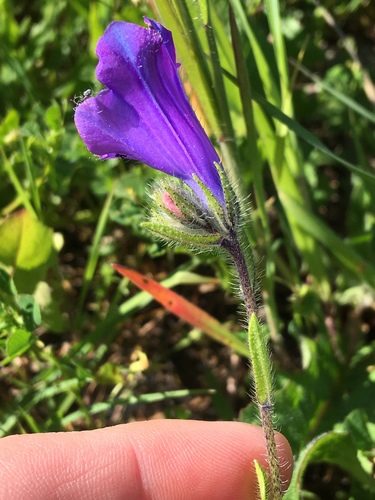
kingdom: Plantae
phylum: Tracheophyta
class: Magnoliopsida
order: Boraginales
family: Boraginaceae
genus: Echium
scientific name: Echium plantagineum
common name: Purple viper's-bugloss
